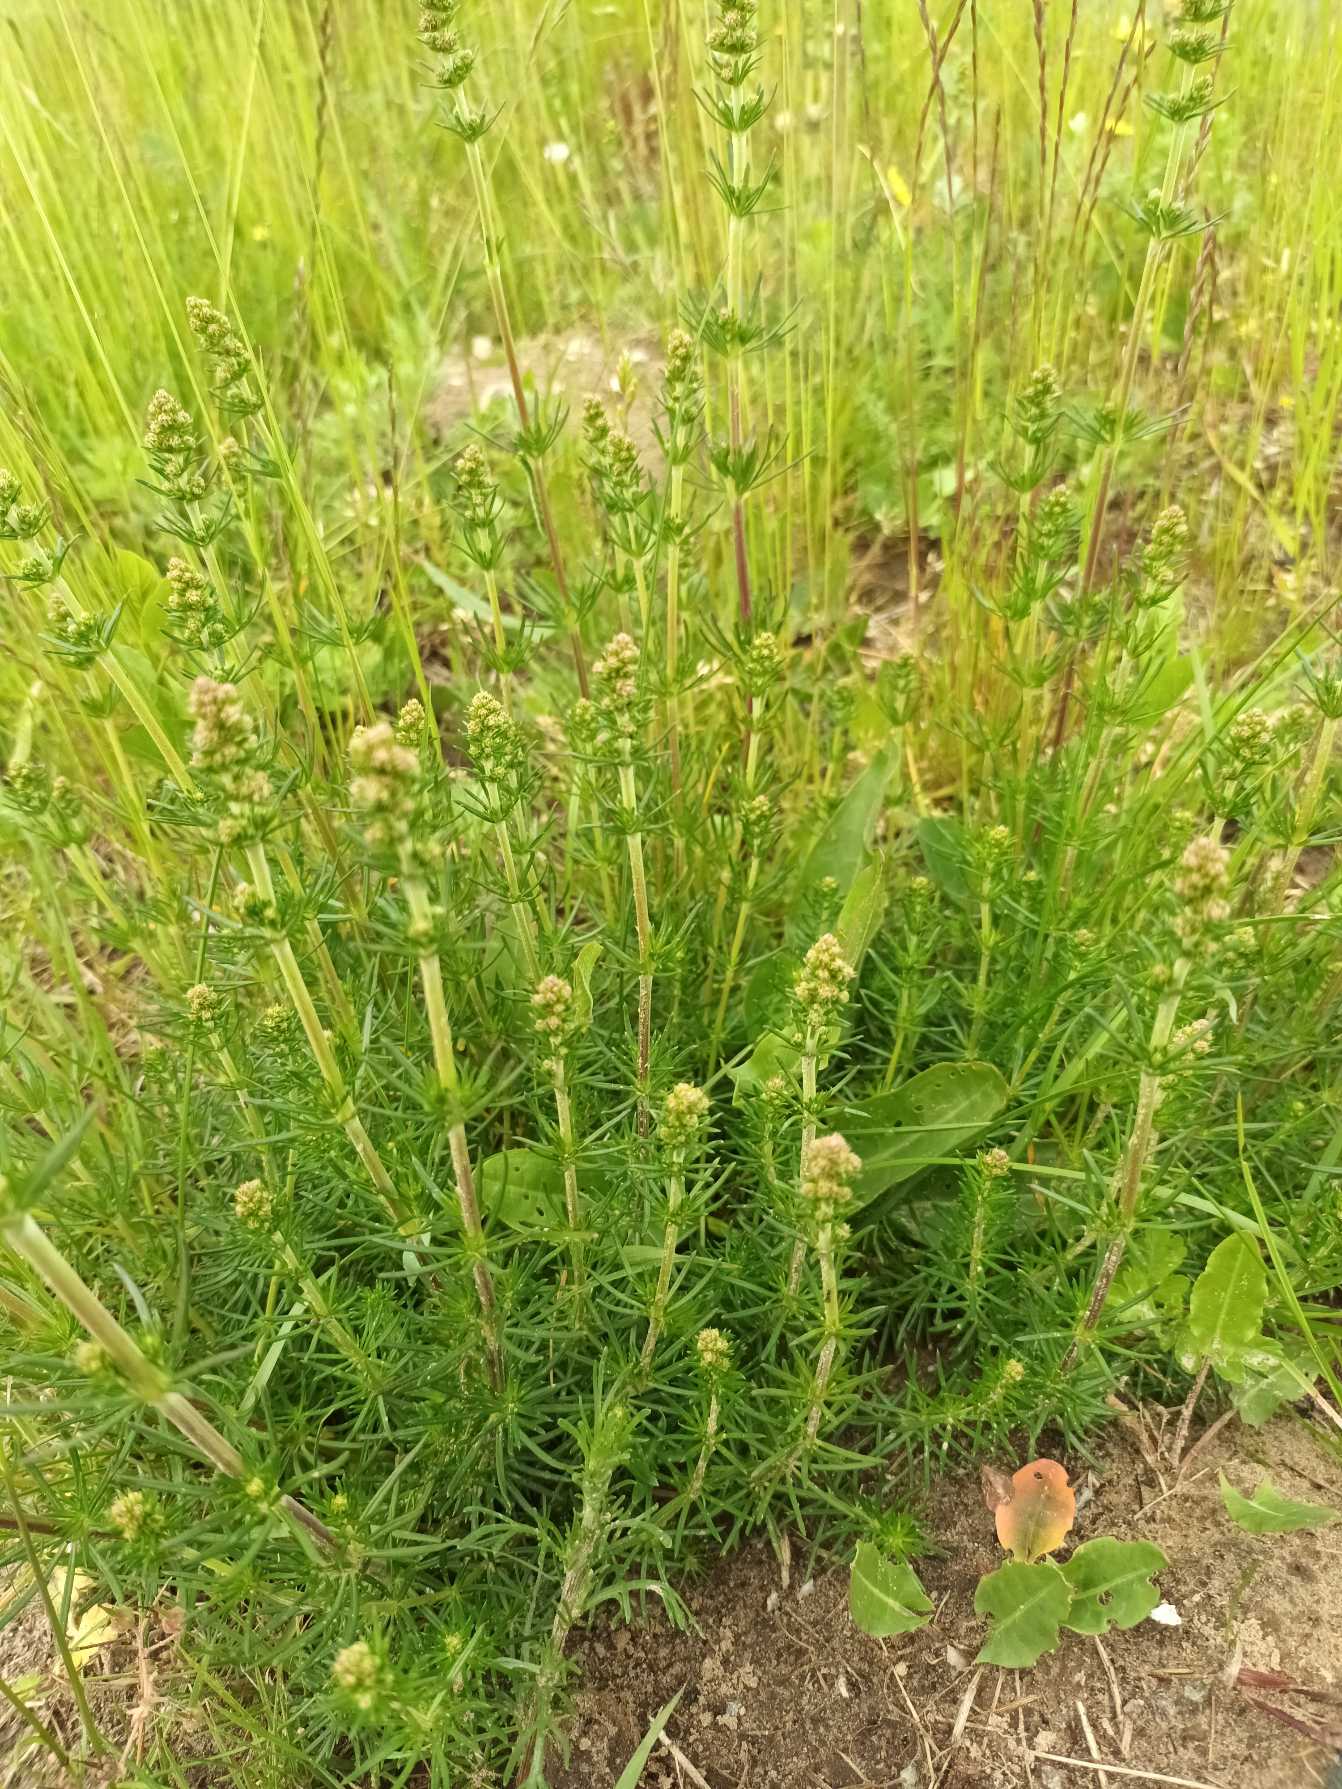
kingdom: Plantae
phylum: Tracheophyta
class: Magnoliopsida
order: Gentianales
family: Rubiaceae
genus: Galium
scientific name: Galium verum
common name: Gul snerre
